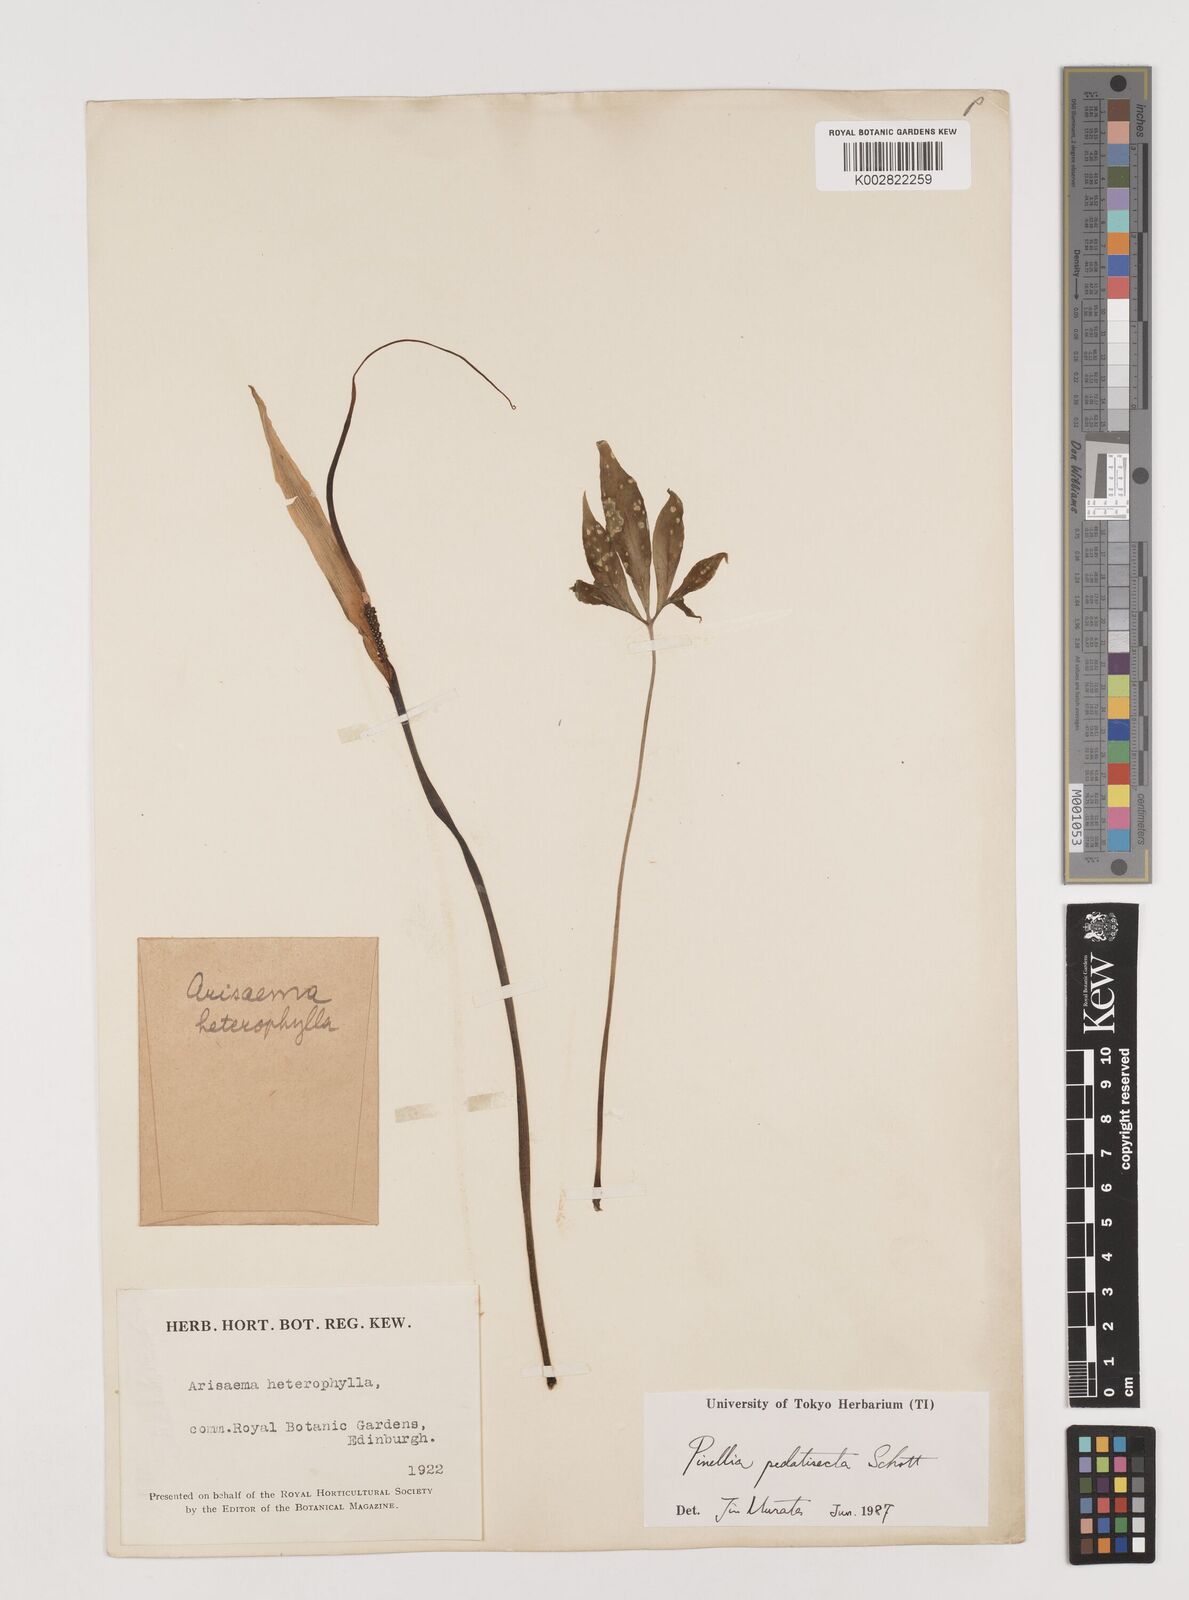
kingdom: Plantae
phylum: Tracheophyta
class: Liliopsida
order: Alismatales
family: Araceae
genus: Pinellia
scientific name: Pinellia pedatisecta
